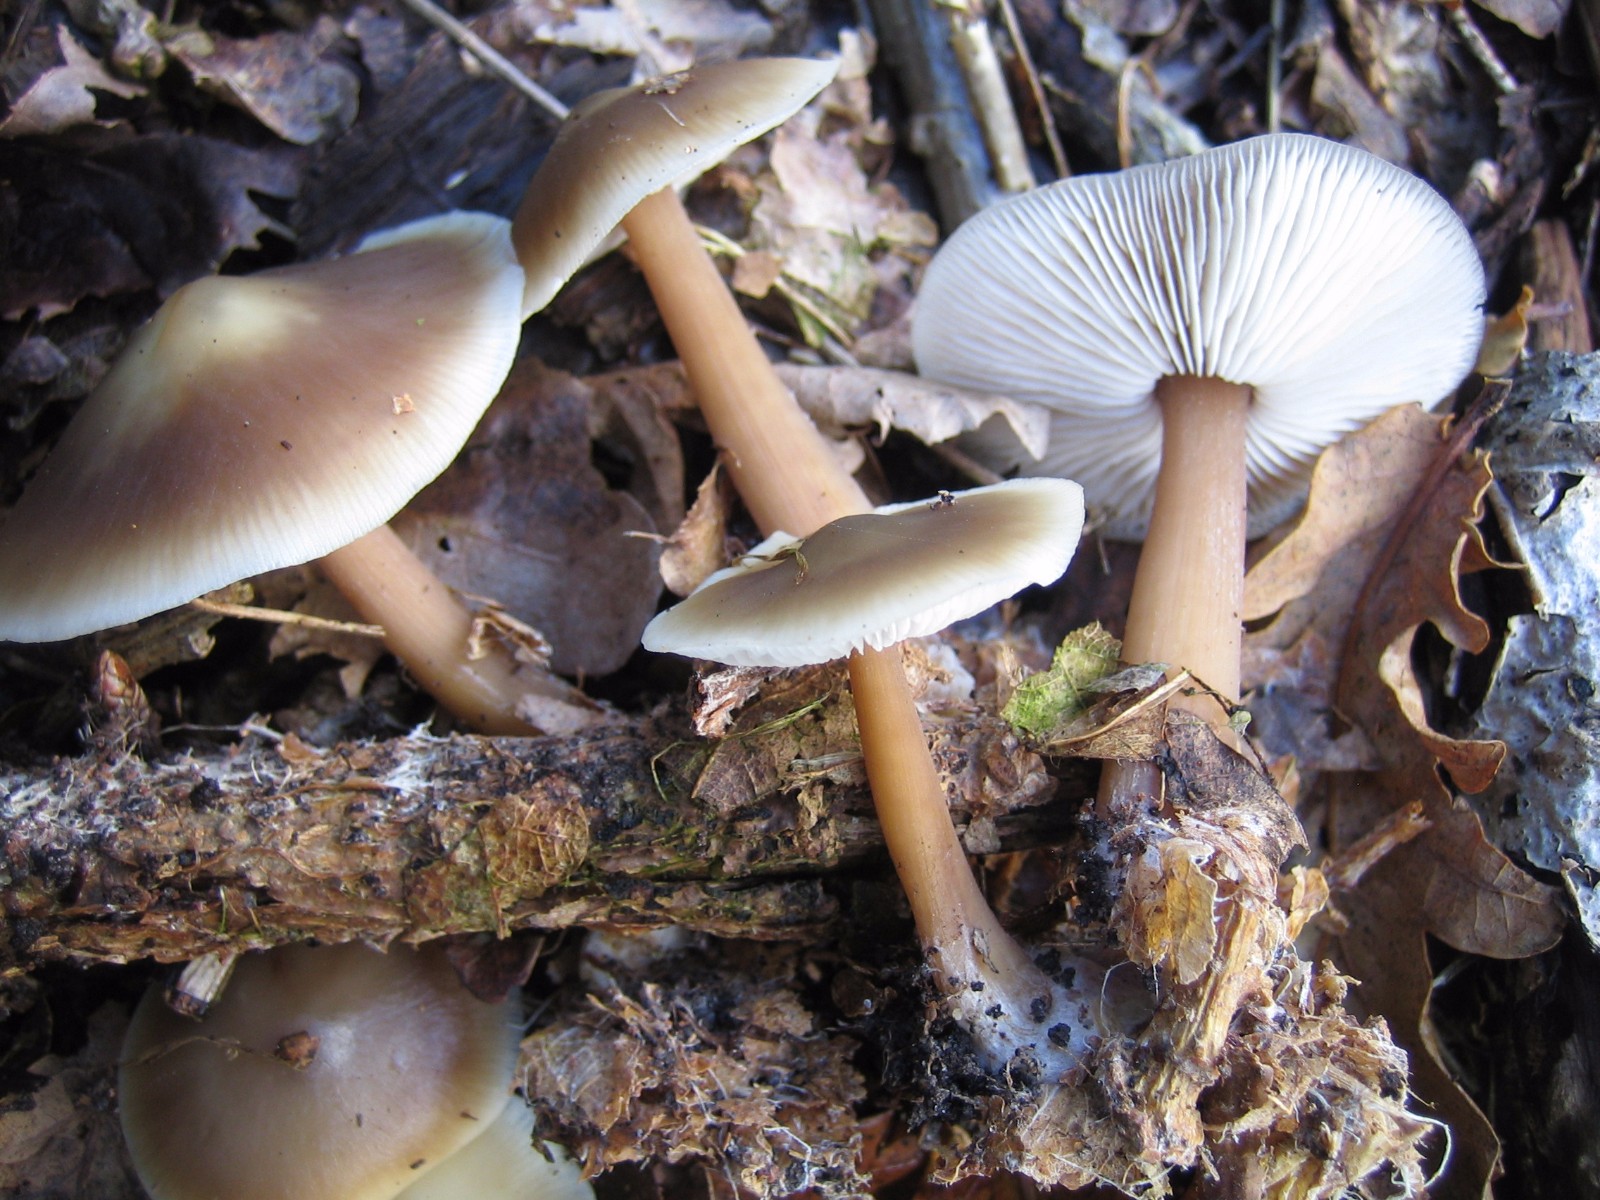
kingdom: Fungi
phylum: Basidiomycota
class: Agaricomycetes
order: Agaricales
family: Omphalotaceae
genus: Rhodocollybia
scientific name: Rhodocollybia asema
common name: horngrå fladhat
